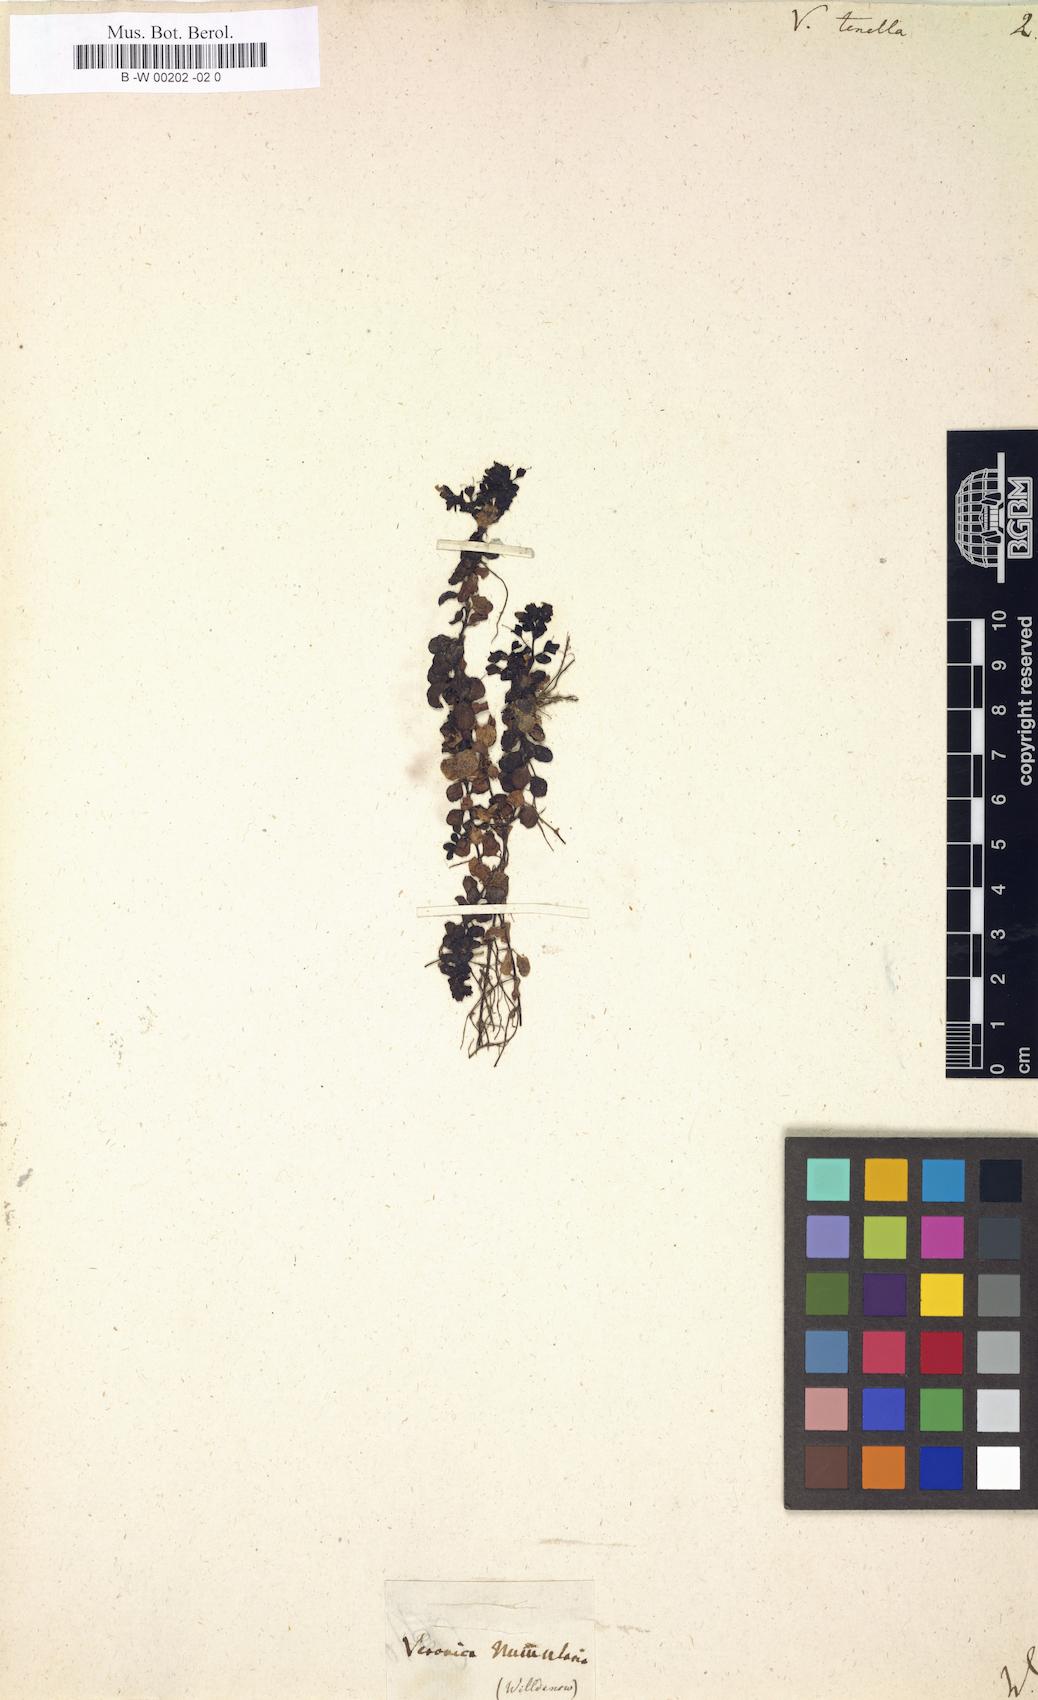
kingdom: Plantae
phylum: Tracheophyta
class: Magnoliopsida
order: Lamiales
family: Plantaginaceae
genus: Veronica
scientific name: Veronica
